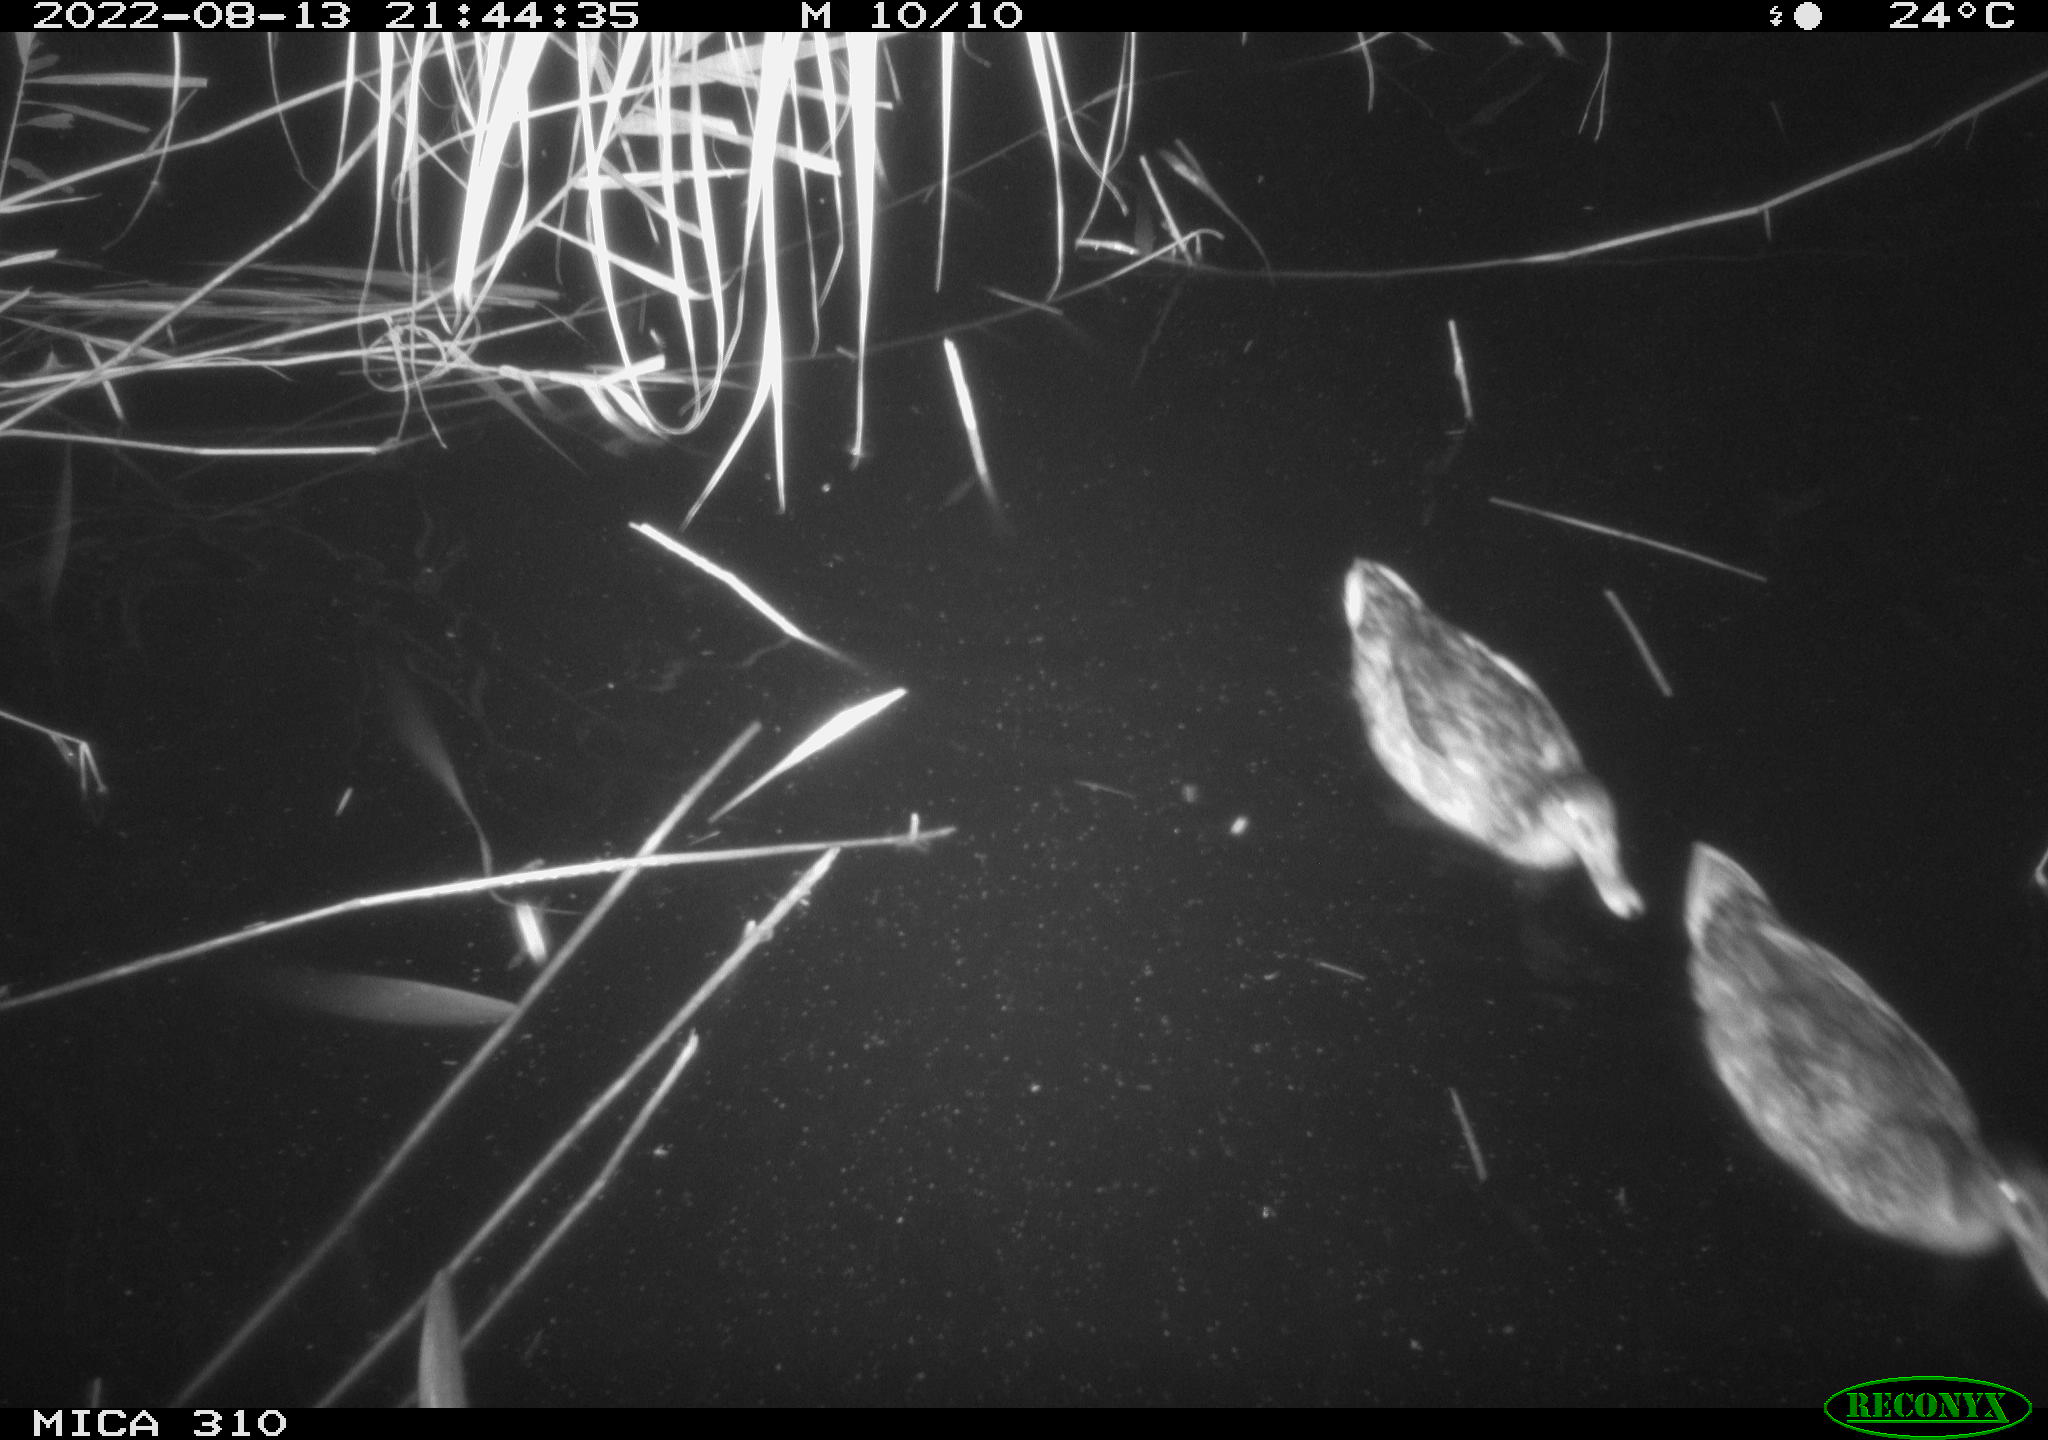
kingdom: Animalia
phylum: Chordata
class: Aves
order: Anseriformes
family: Anatidae
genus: Anas
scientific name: Anas platyrhynchos
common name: Mallard
